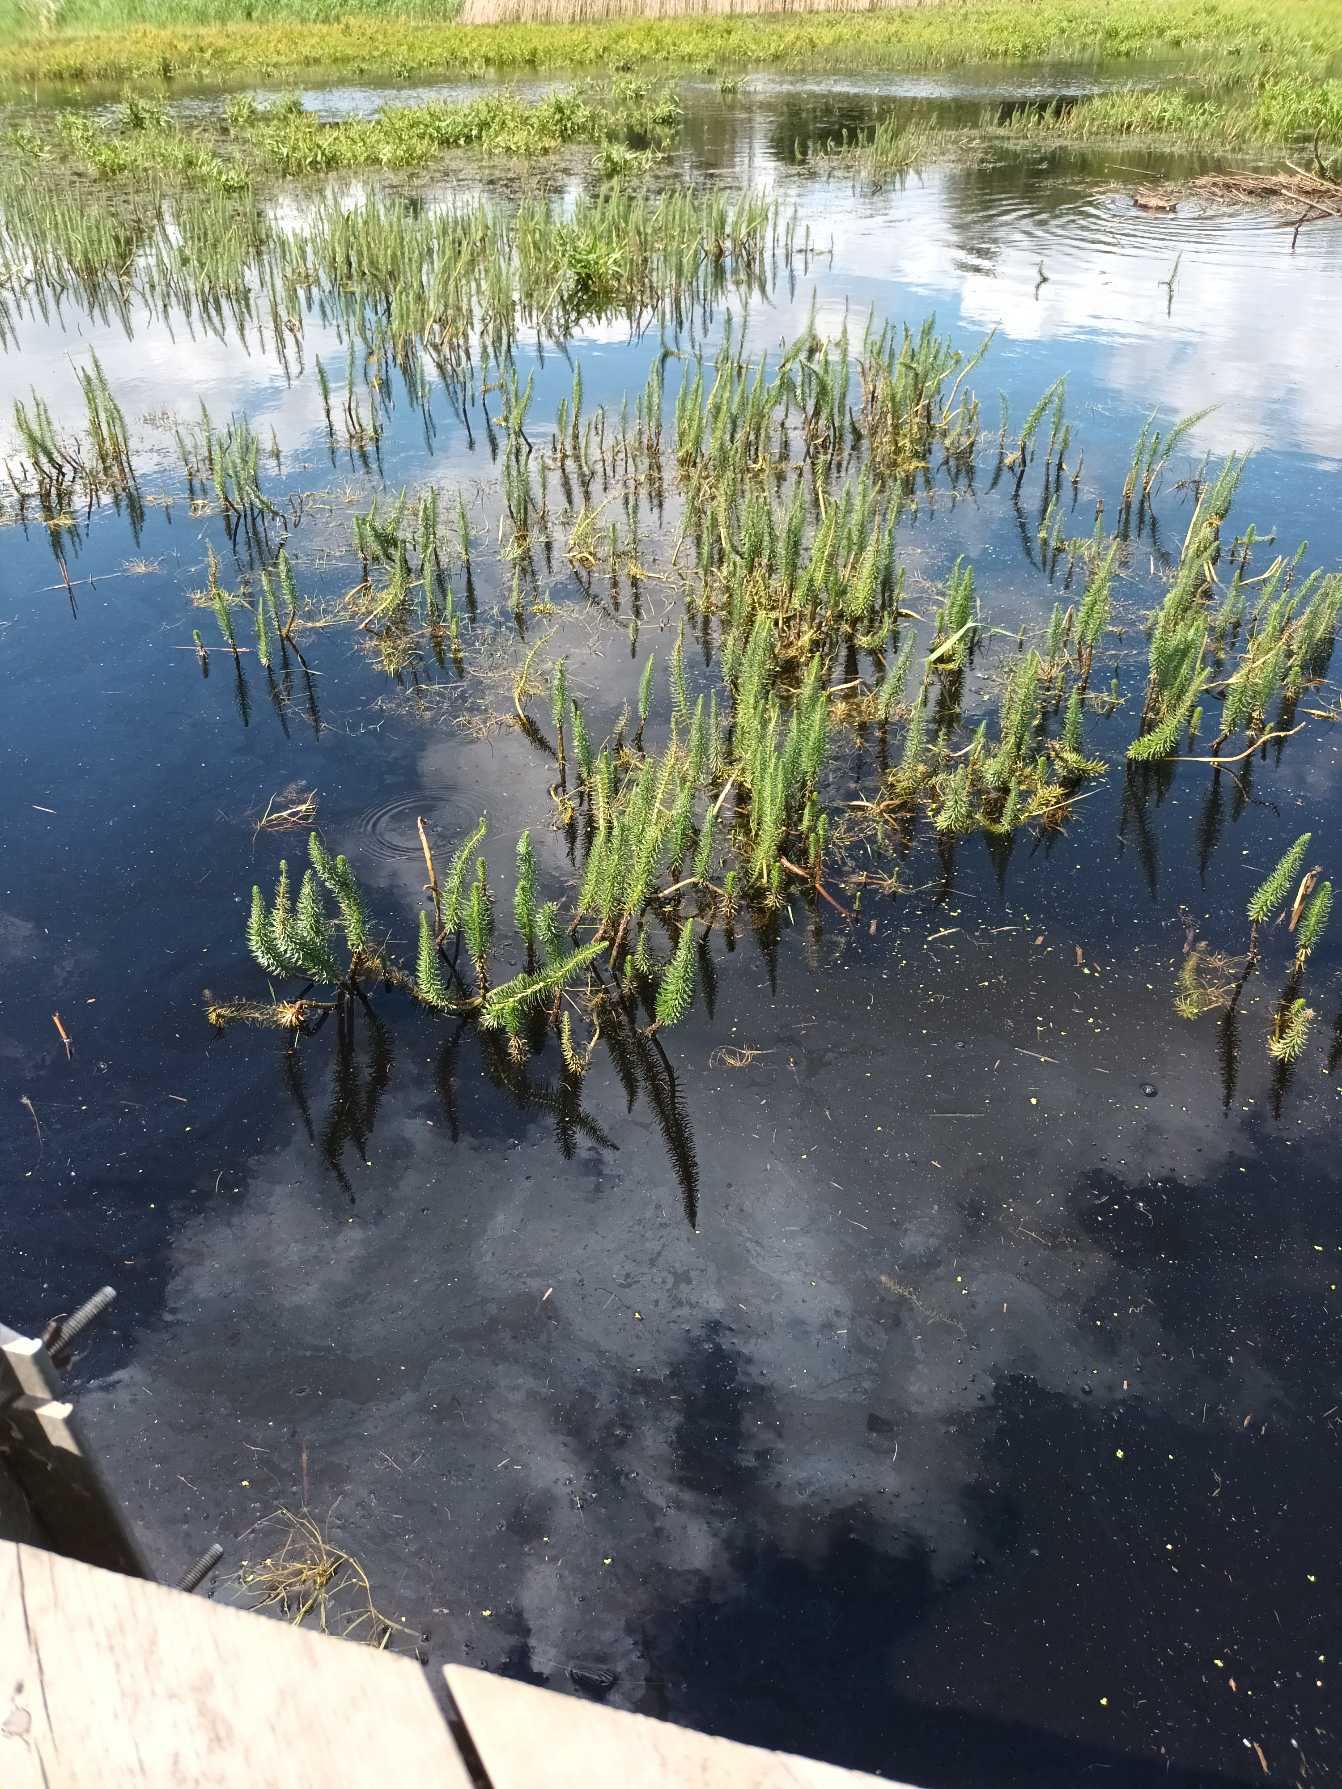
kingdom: Plantae
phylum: Tracheophyta
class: Magnoliopsida
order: Lamiales
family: Plantaginaceae
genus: Hippuris
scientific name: Hippuris vulgaris
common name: Vandspir
